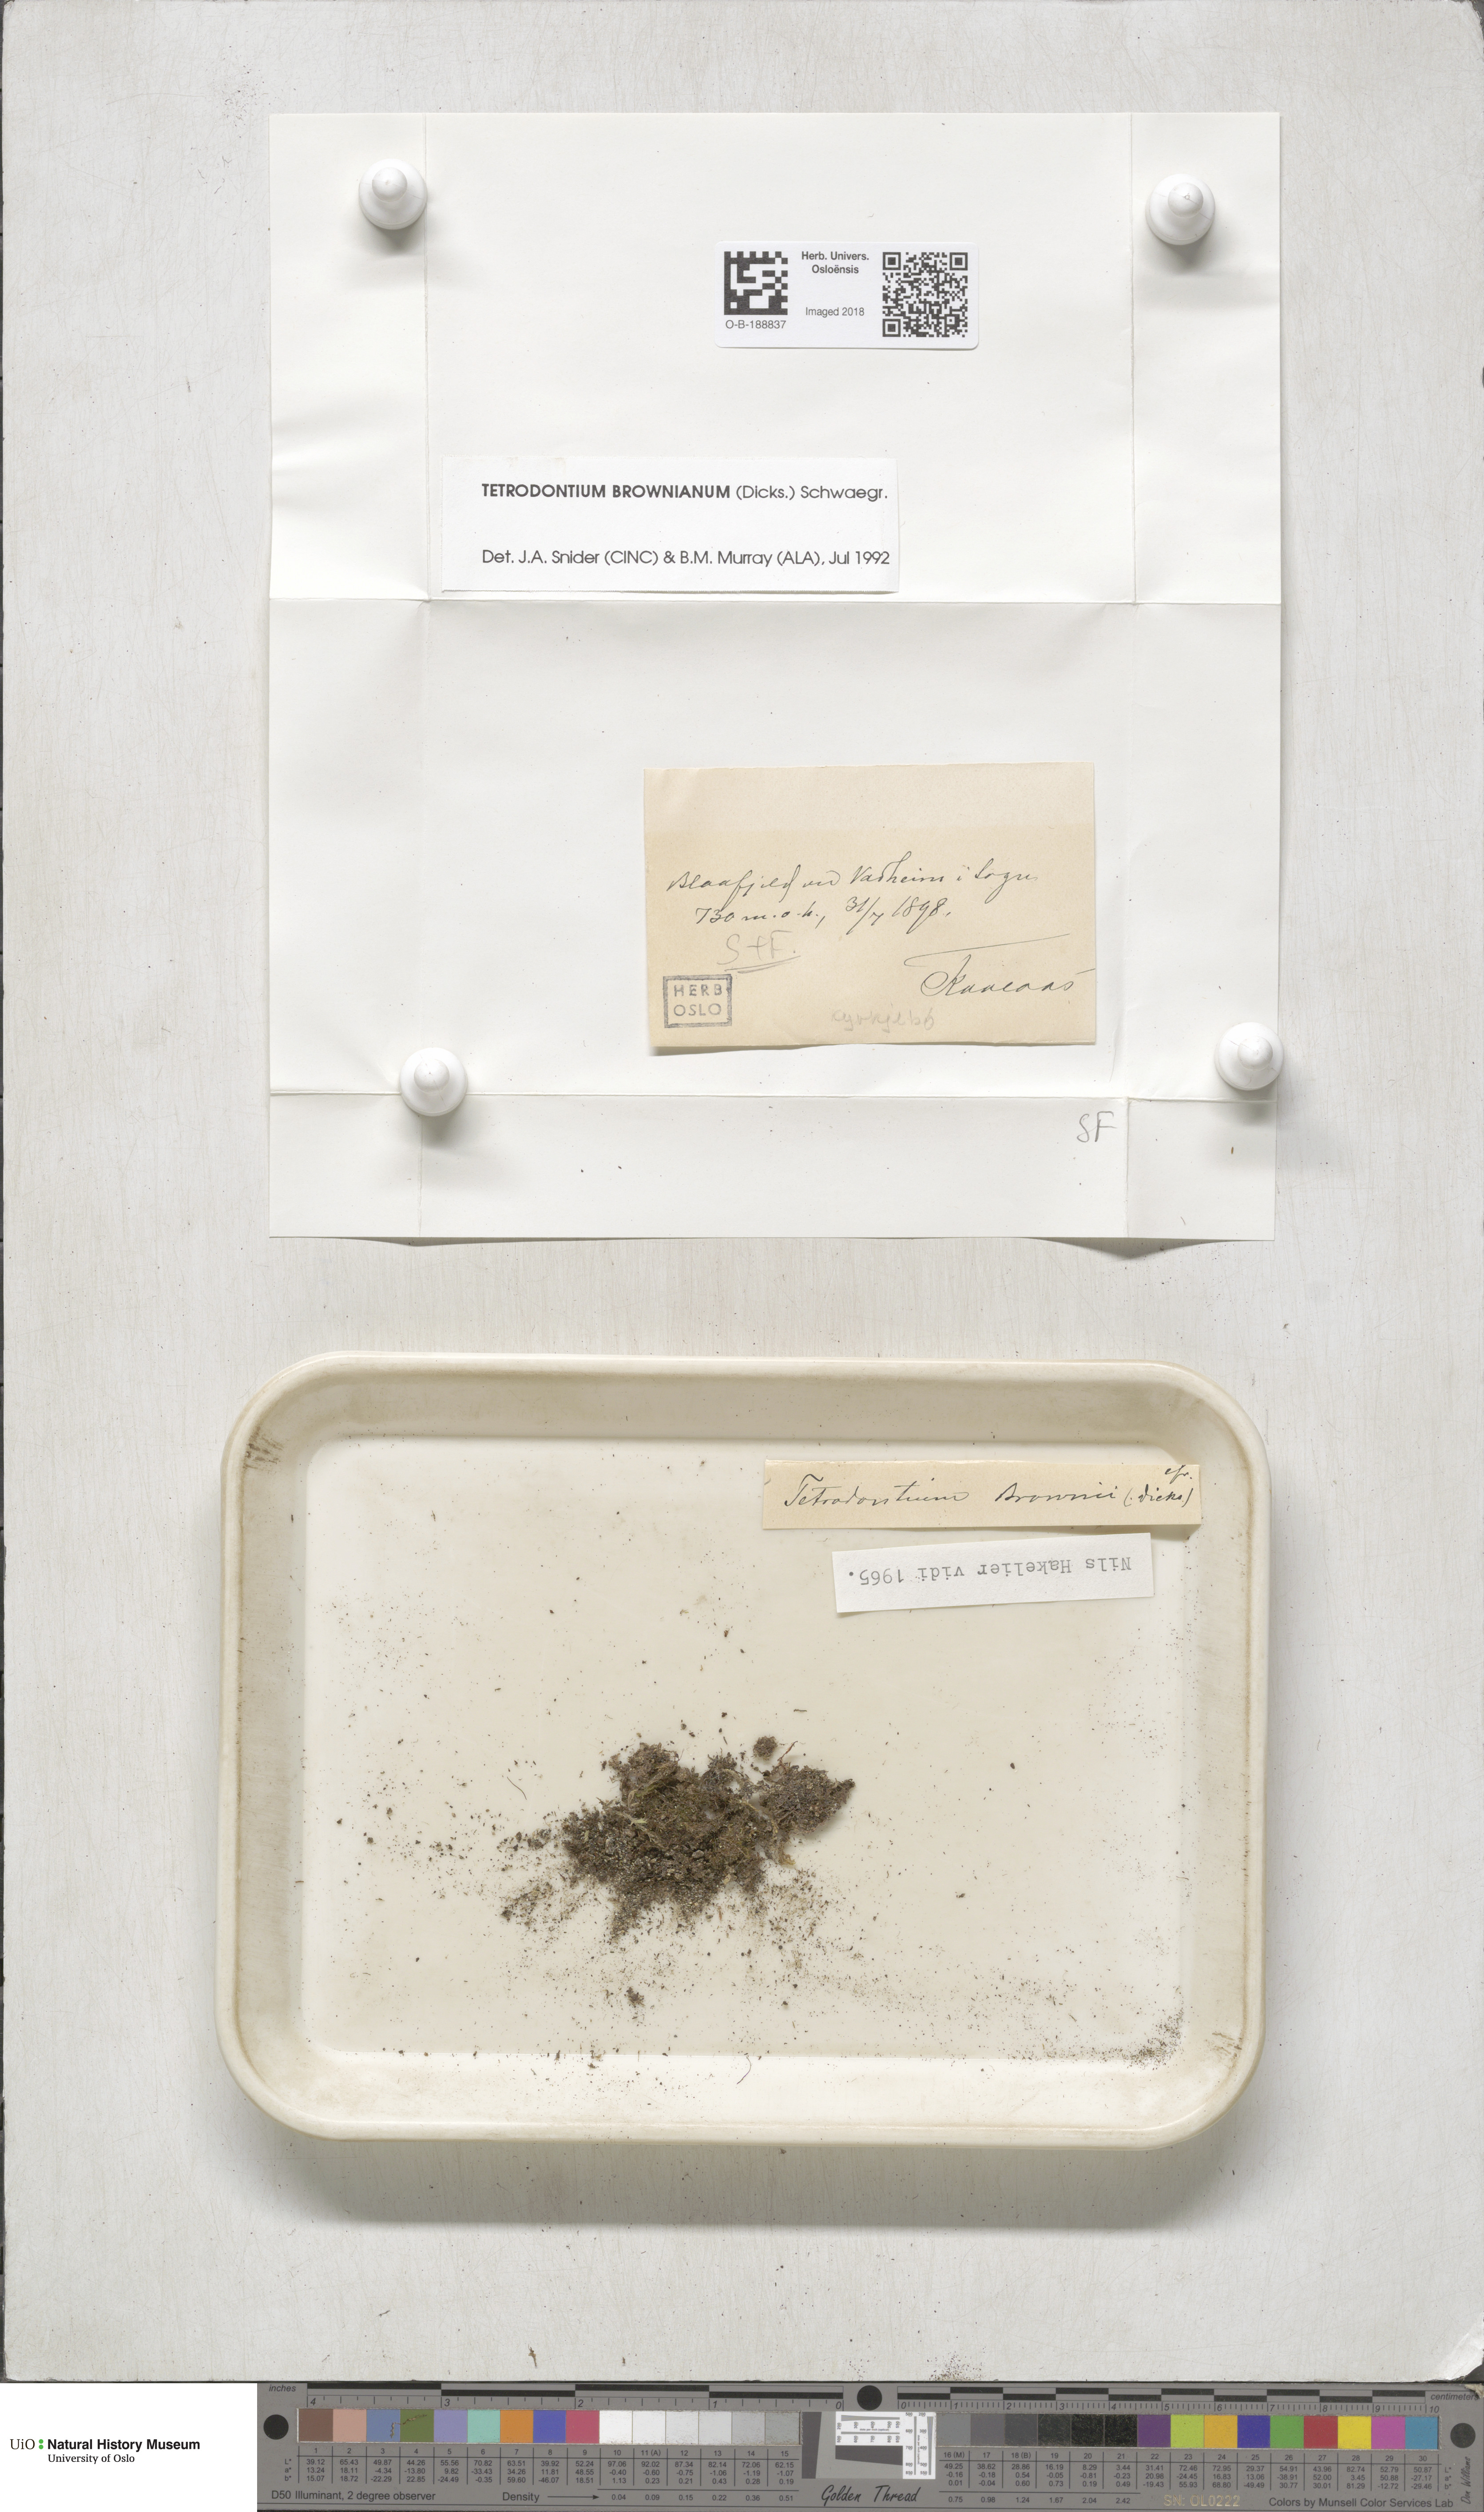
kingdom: Plantae
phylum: Bryophyta
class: Polytrichopsida
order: Tetraphidales
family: Tetraphidaceae
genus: Tetrodontium
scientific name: Tetrodontium brownianum
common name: Brown's four-toothed moss
